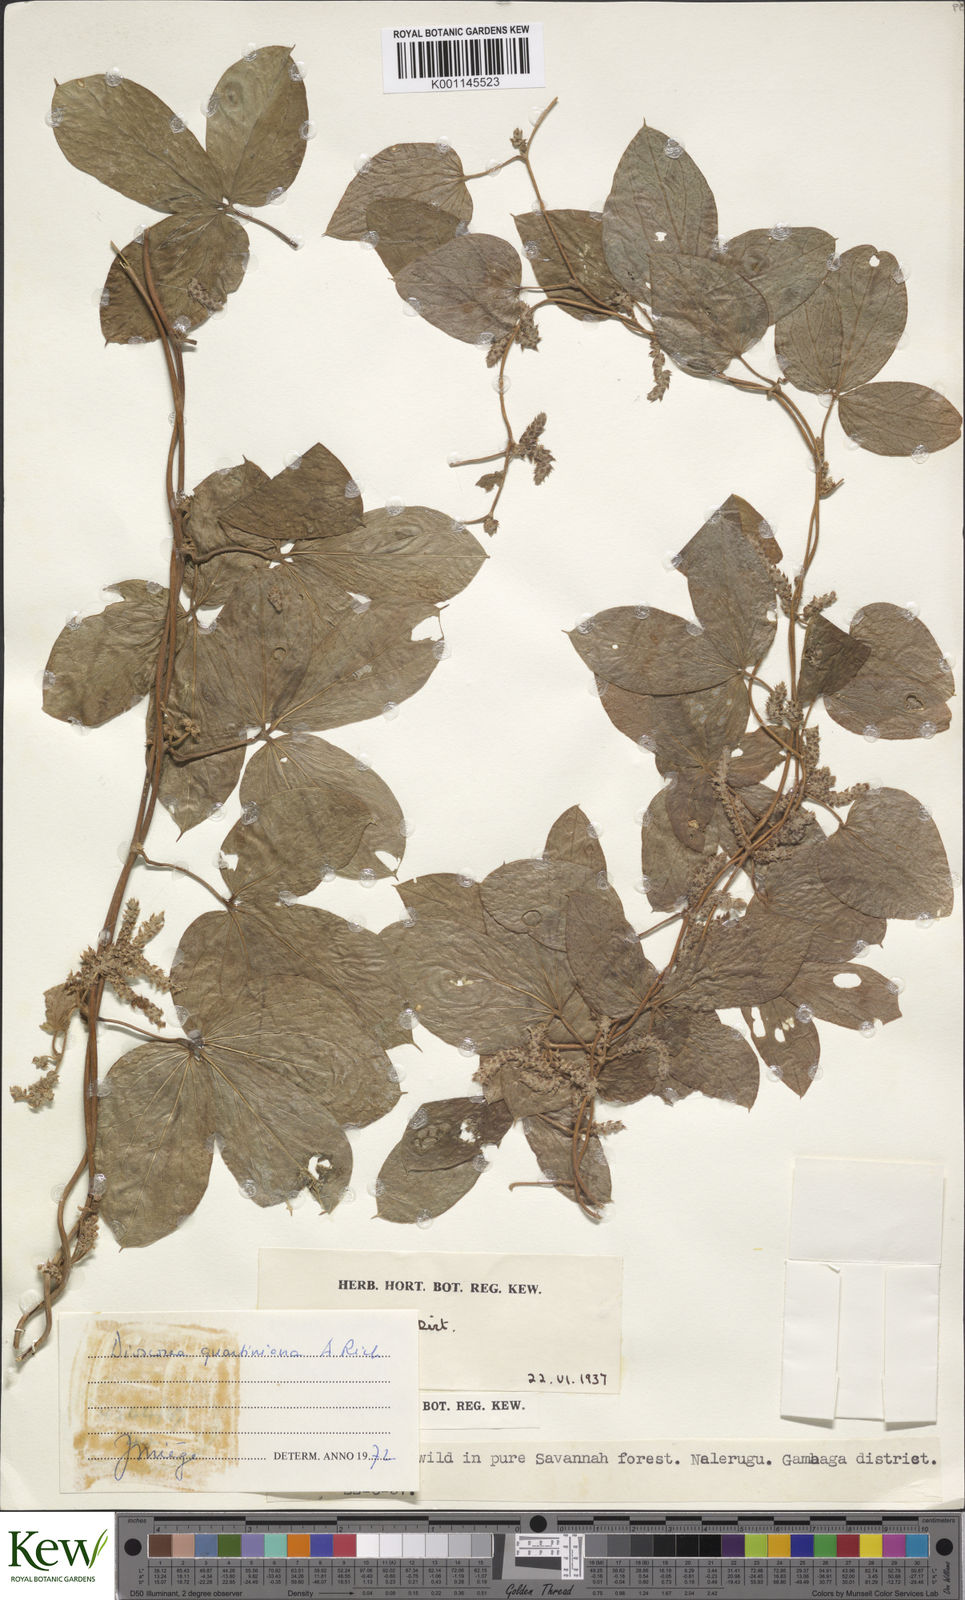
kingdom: Plantae
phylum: Tracheophyta
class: Liliopsida
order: Dioscoreales
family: Dioscoreaceae
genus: Dioscorea
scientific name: Dioscorea quartiniana
